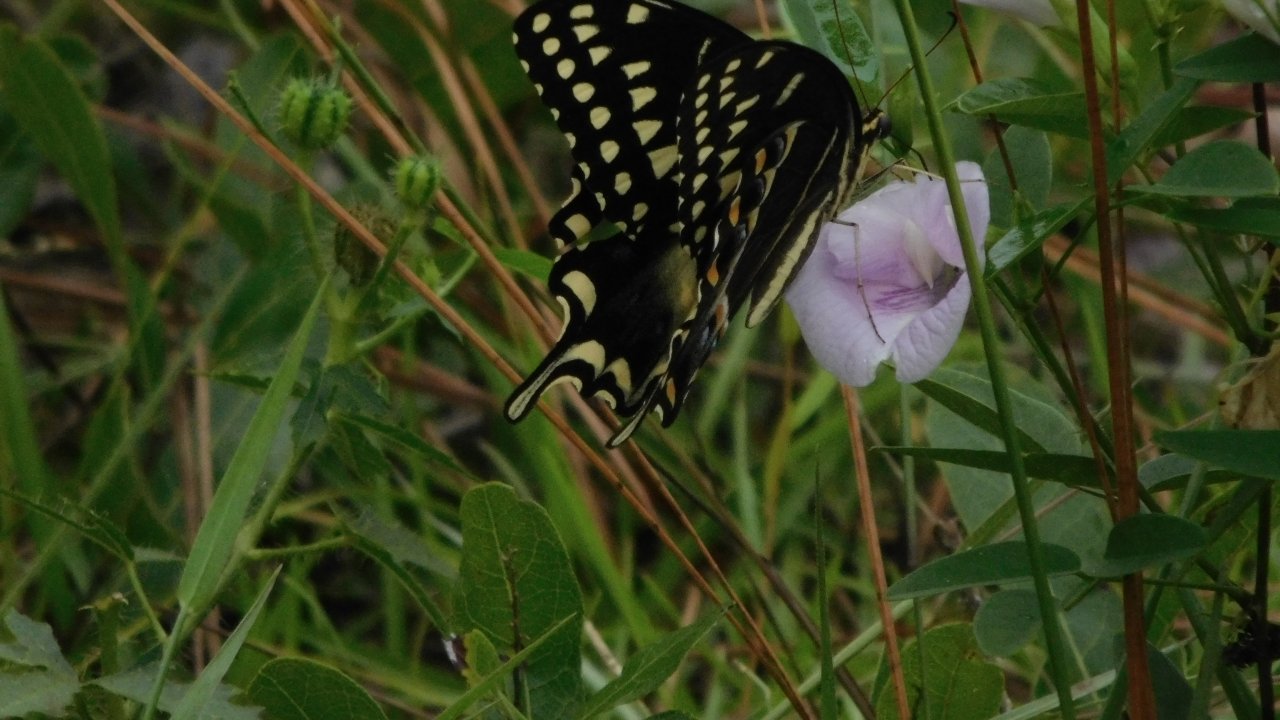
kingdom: Animalia
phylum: Arthropoda
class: Insecta
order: Lepidoptera
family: Papilionidae
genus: Pterourus
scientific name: Pterourus palamedes
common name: Palamedes Swallowtail
